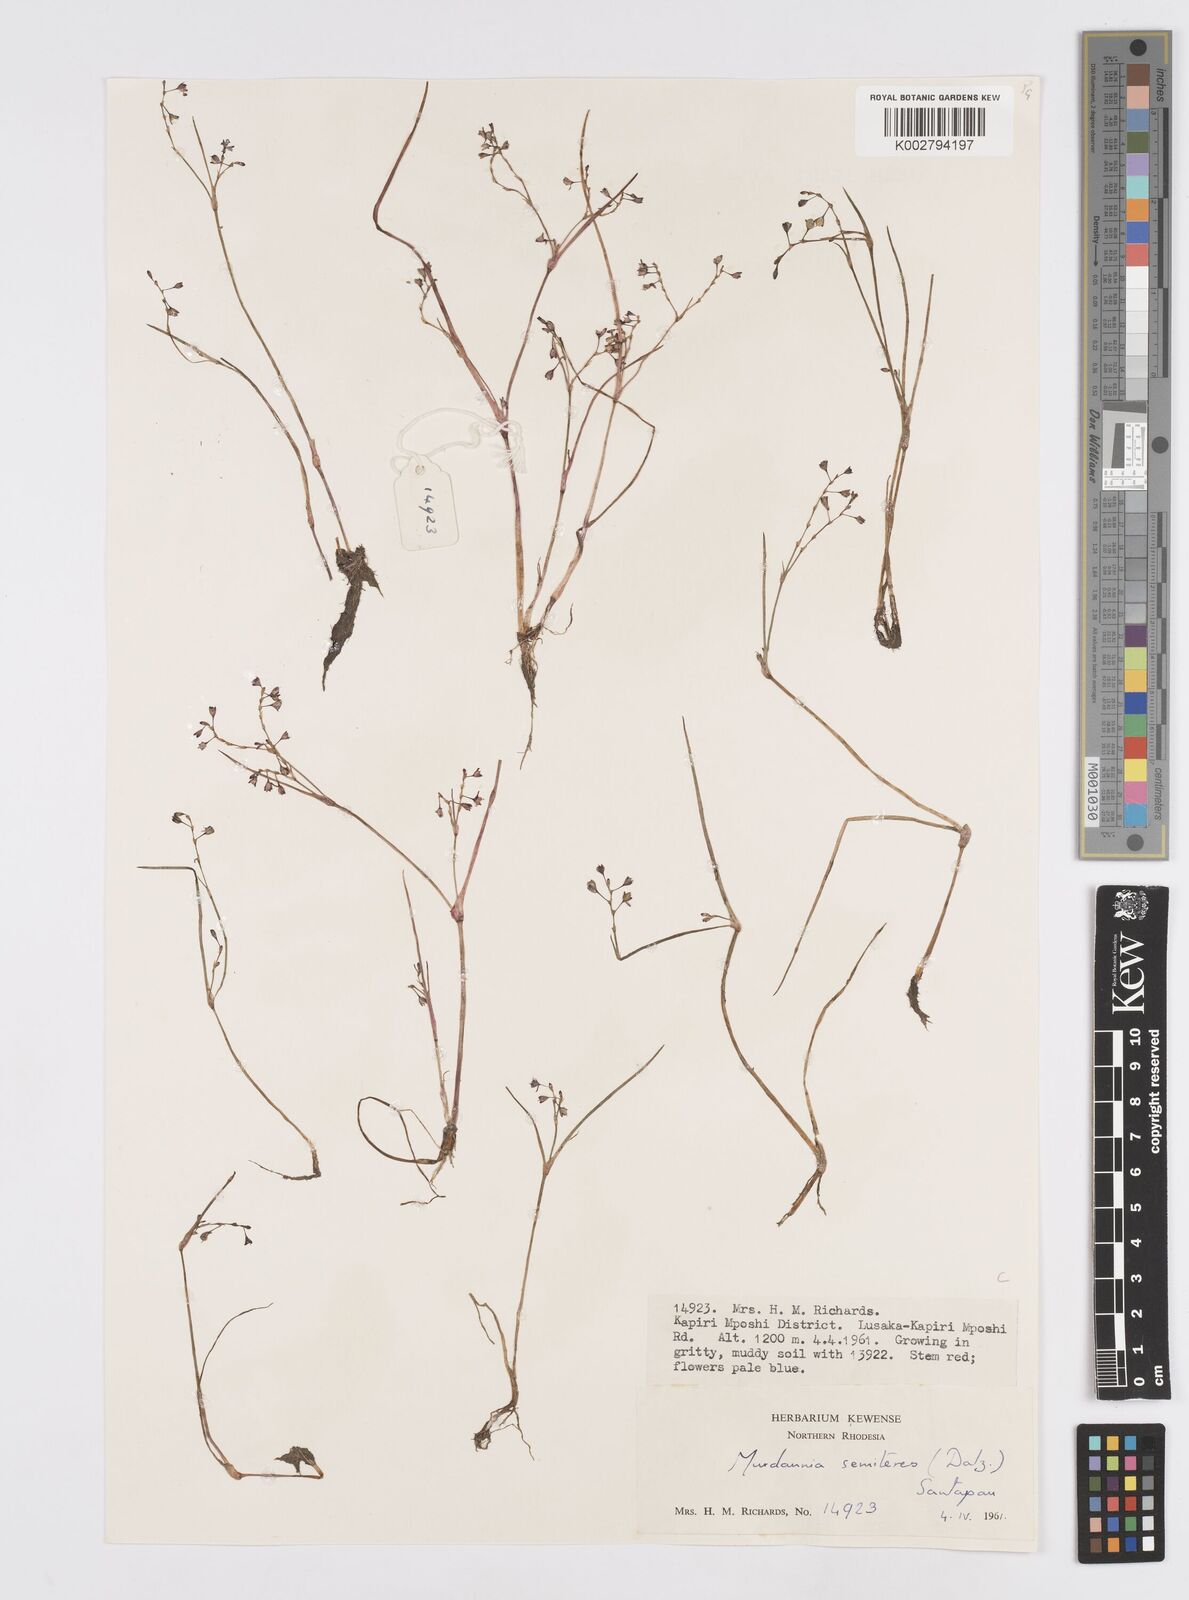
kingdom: Plantae
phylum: Tracheophyta
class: Liliopsida
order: Commelinales
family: Commelinaceae
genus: Murdannia
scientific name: Murdannia semiteres
